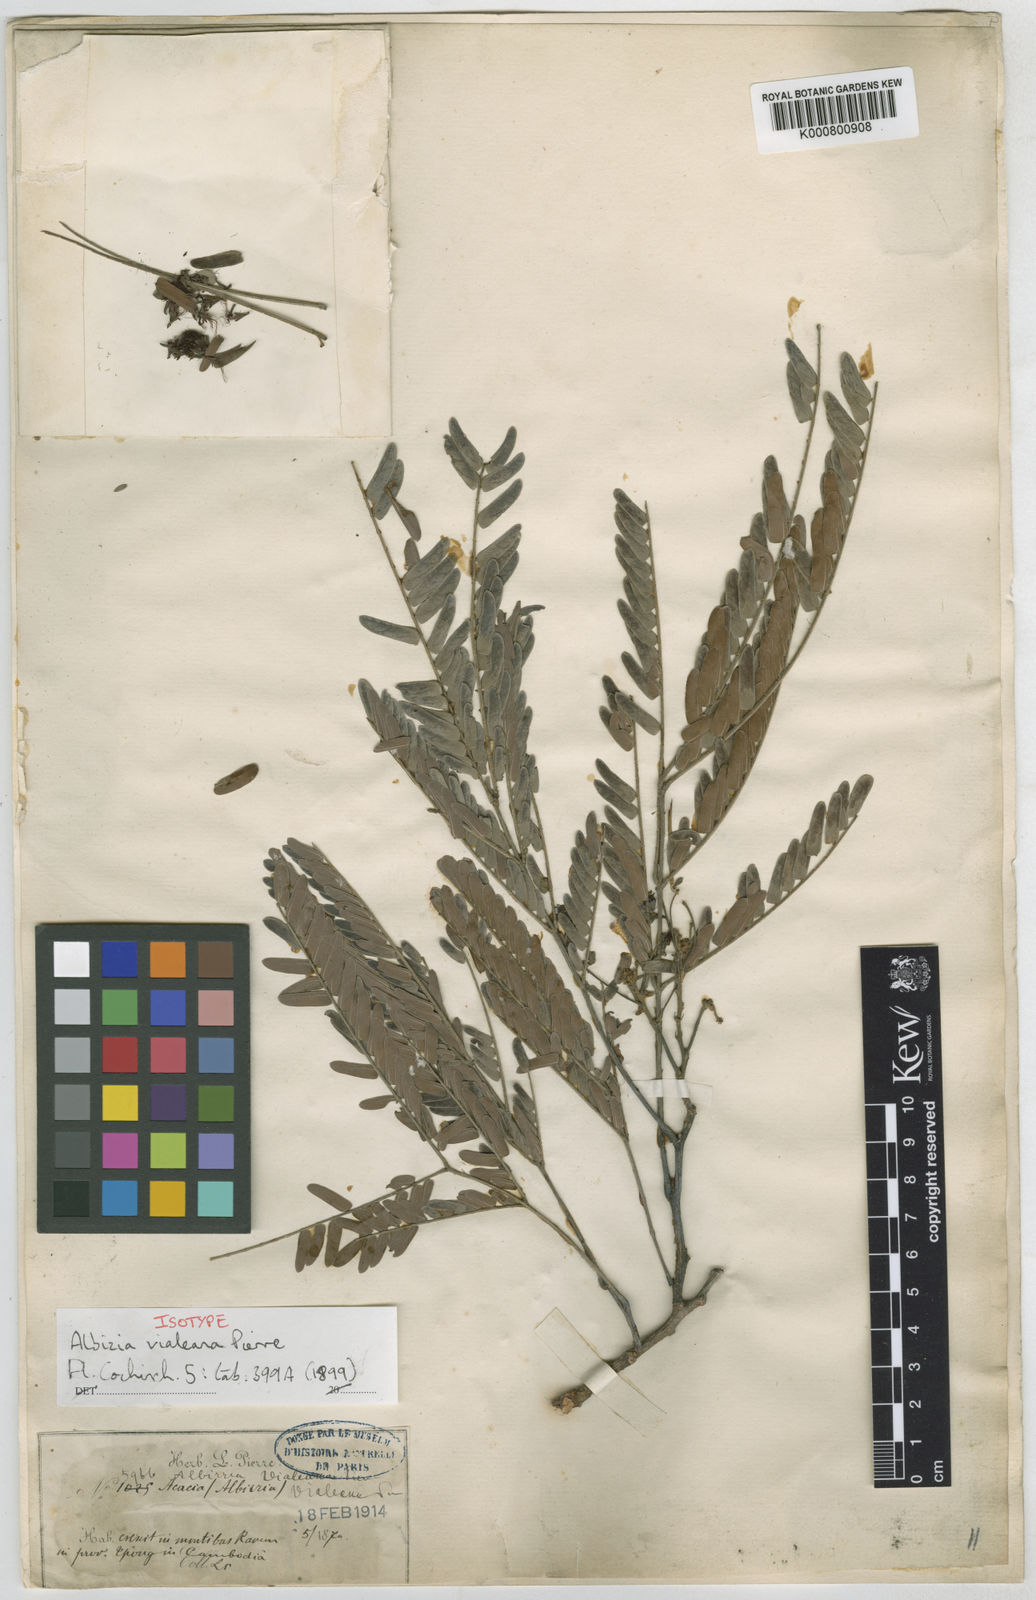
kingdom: Plantae
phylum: Tracheophyta
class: Magnoliopsida
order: Fabales
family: Fabaceae
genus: Albizia
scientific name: Albizia vialeana
